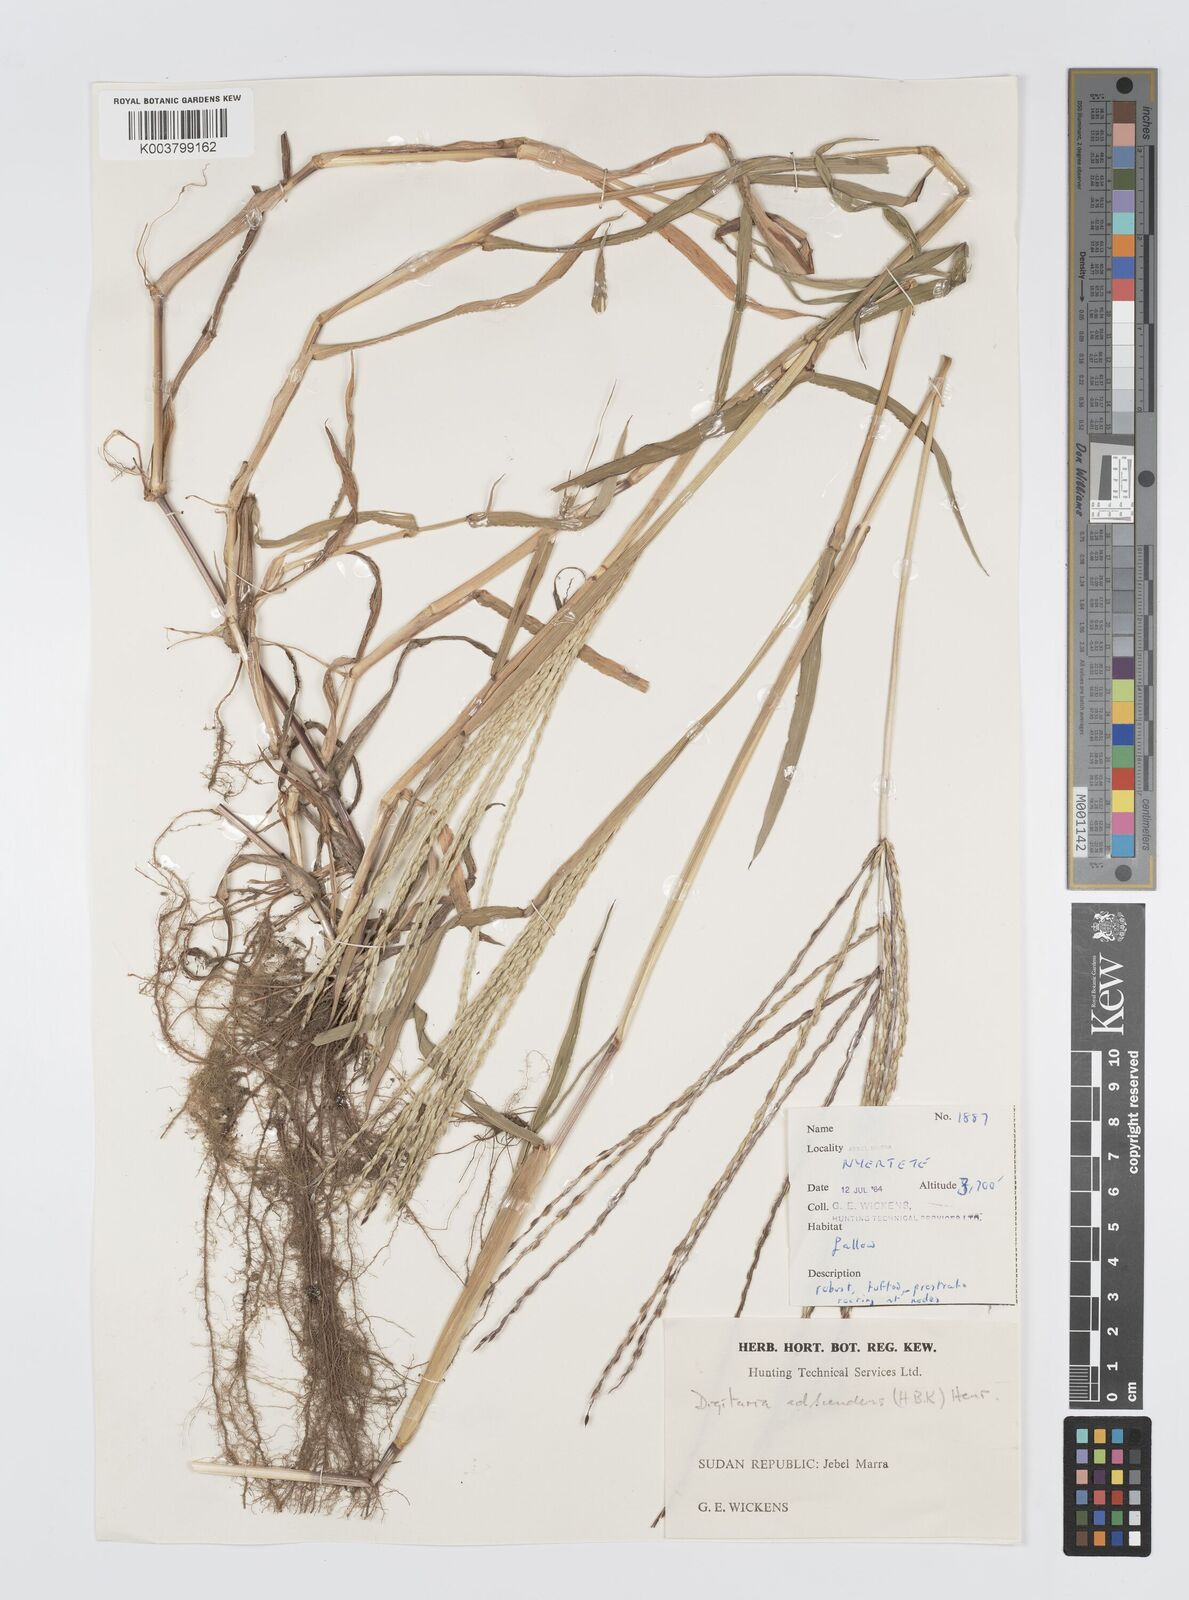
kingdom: Plantae
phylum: Tracheophyta
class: Liliopsida
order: Poales
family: Poaceae
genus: Digitaria
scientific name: Digitaria acuminatissima
